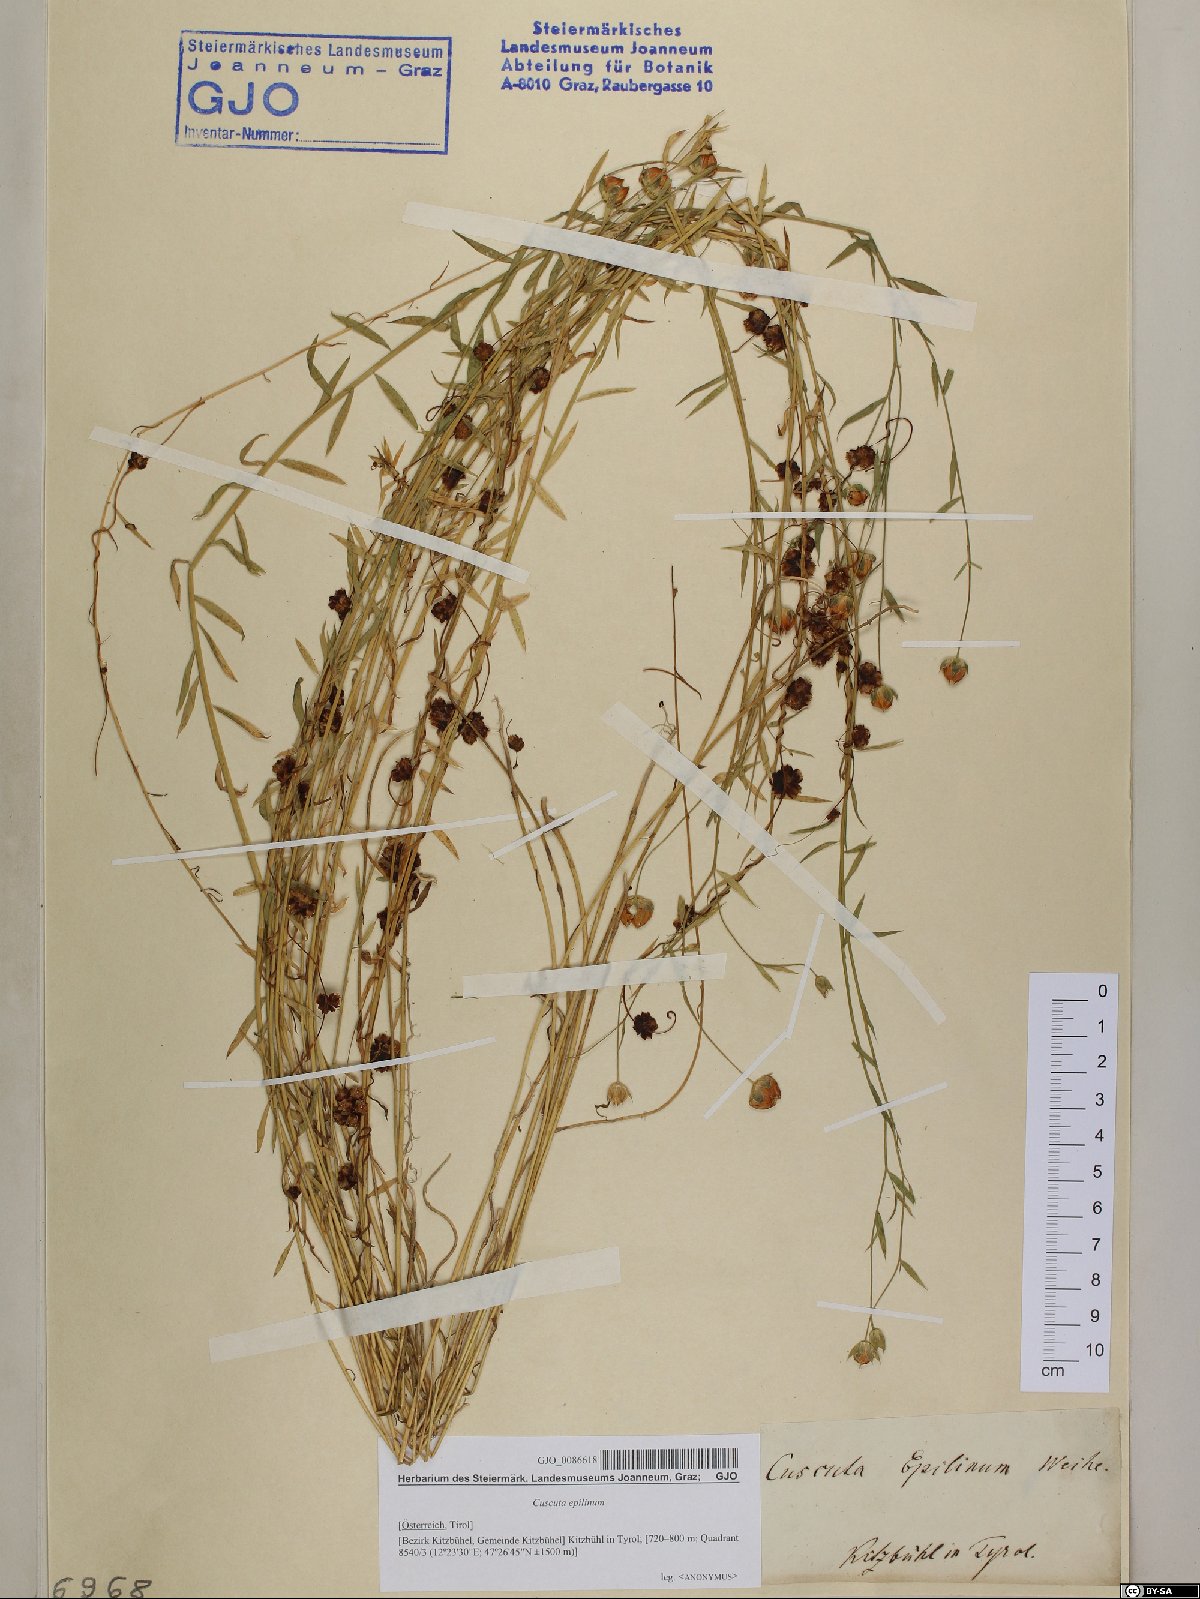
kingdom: Plantae
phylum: Tracheophyta
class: Magnoliopsida
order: Solanales
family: Convolvulaceae
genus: Cuscuta
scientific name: Cuscuta epilinum
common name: Flax dodder
